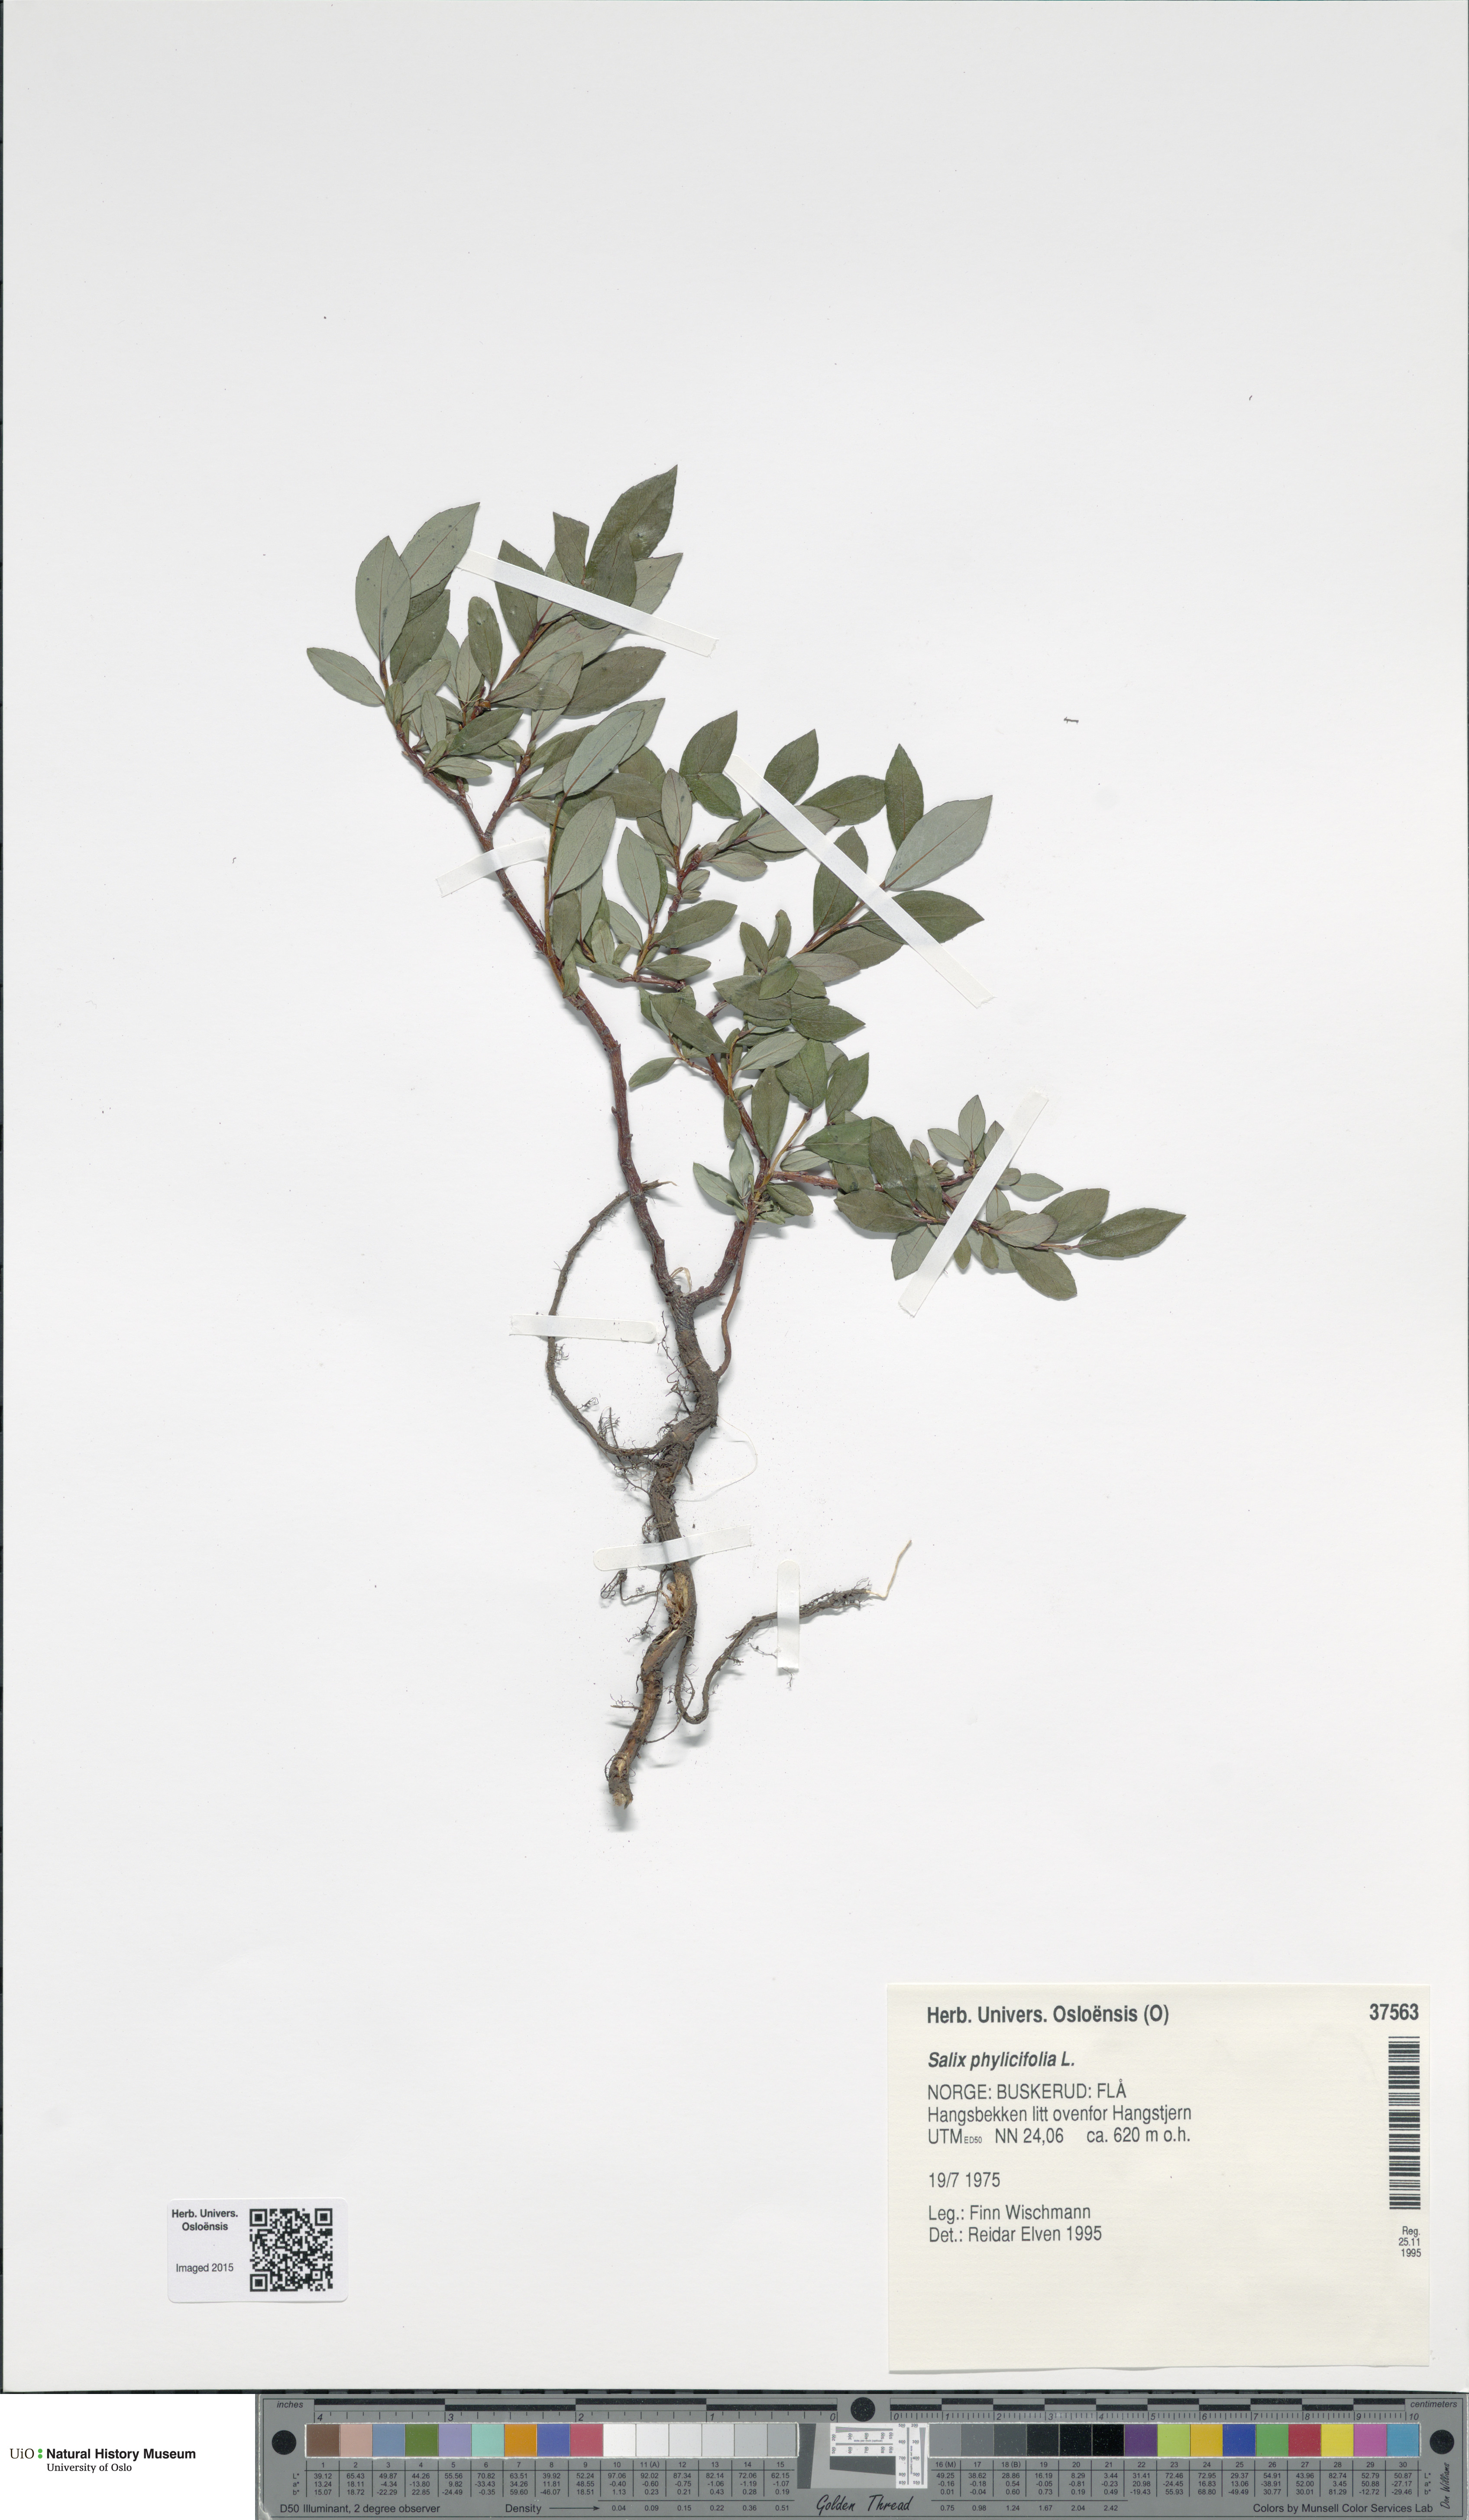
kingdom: Plantae
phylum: Tracheophyta
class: Magnoliopsida
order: Malpighiales
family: Salicaceae
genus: Salix
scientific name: Salix phylicifolia
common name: Tea-leaved willow
